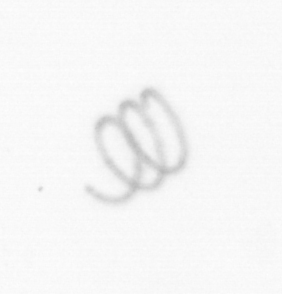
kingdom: Chromista
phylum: Ochrophyta
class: Bacillariophyceae
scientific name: Bacillariophyceae
